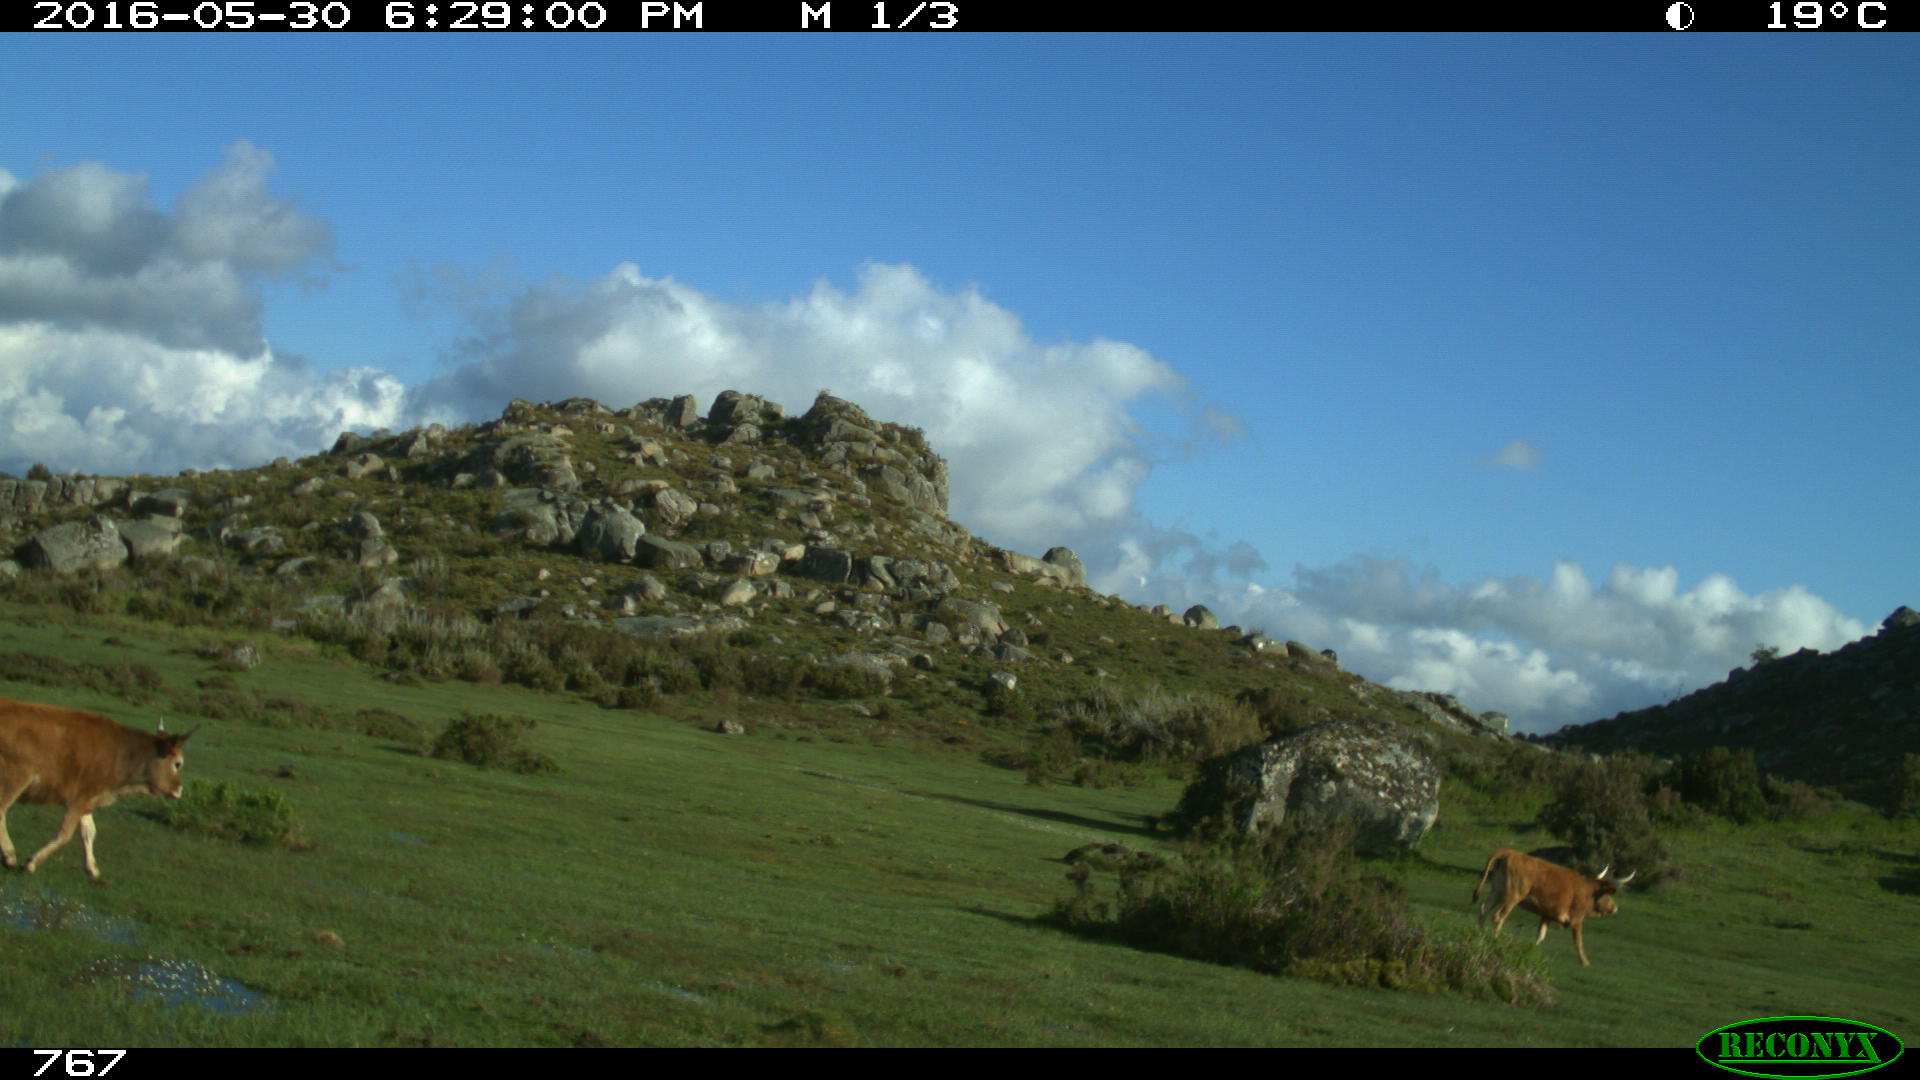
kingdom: Animalia
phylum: Chordata
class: Mammalia
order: Artiodactyla
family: Bovidae
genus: Bos
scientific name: Bos taurus
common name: Domesticated cattle
